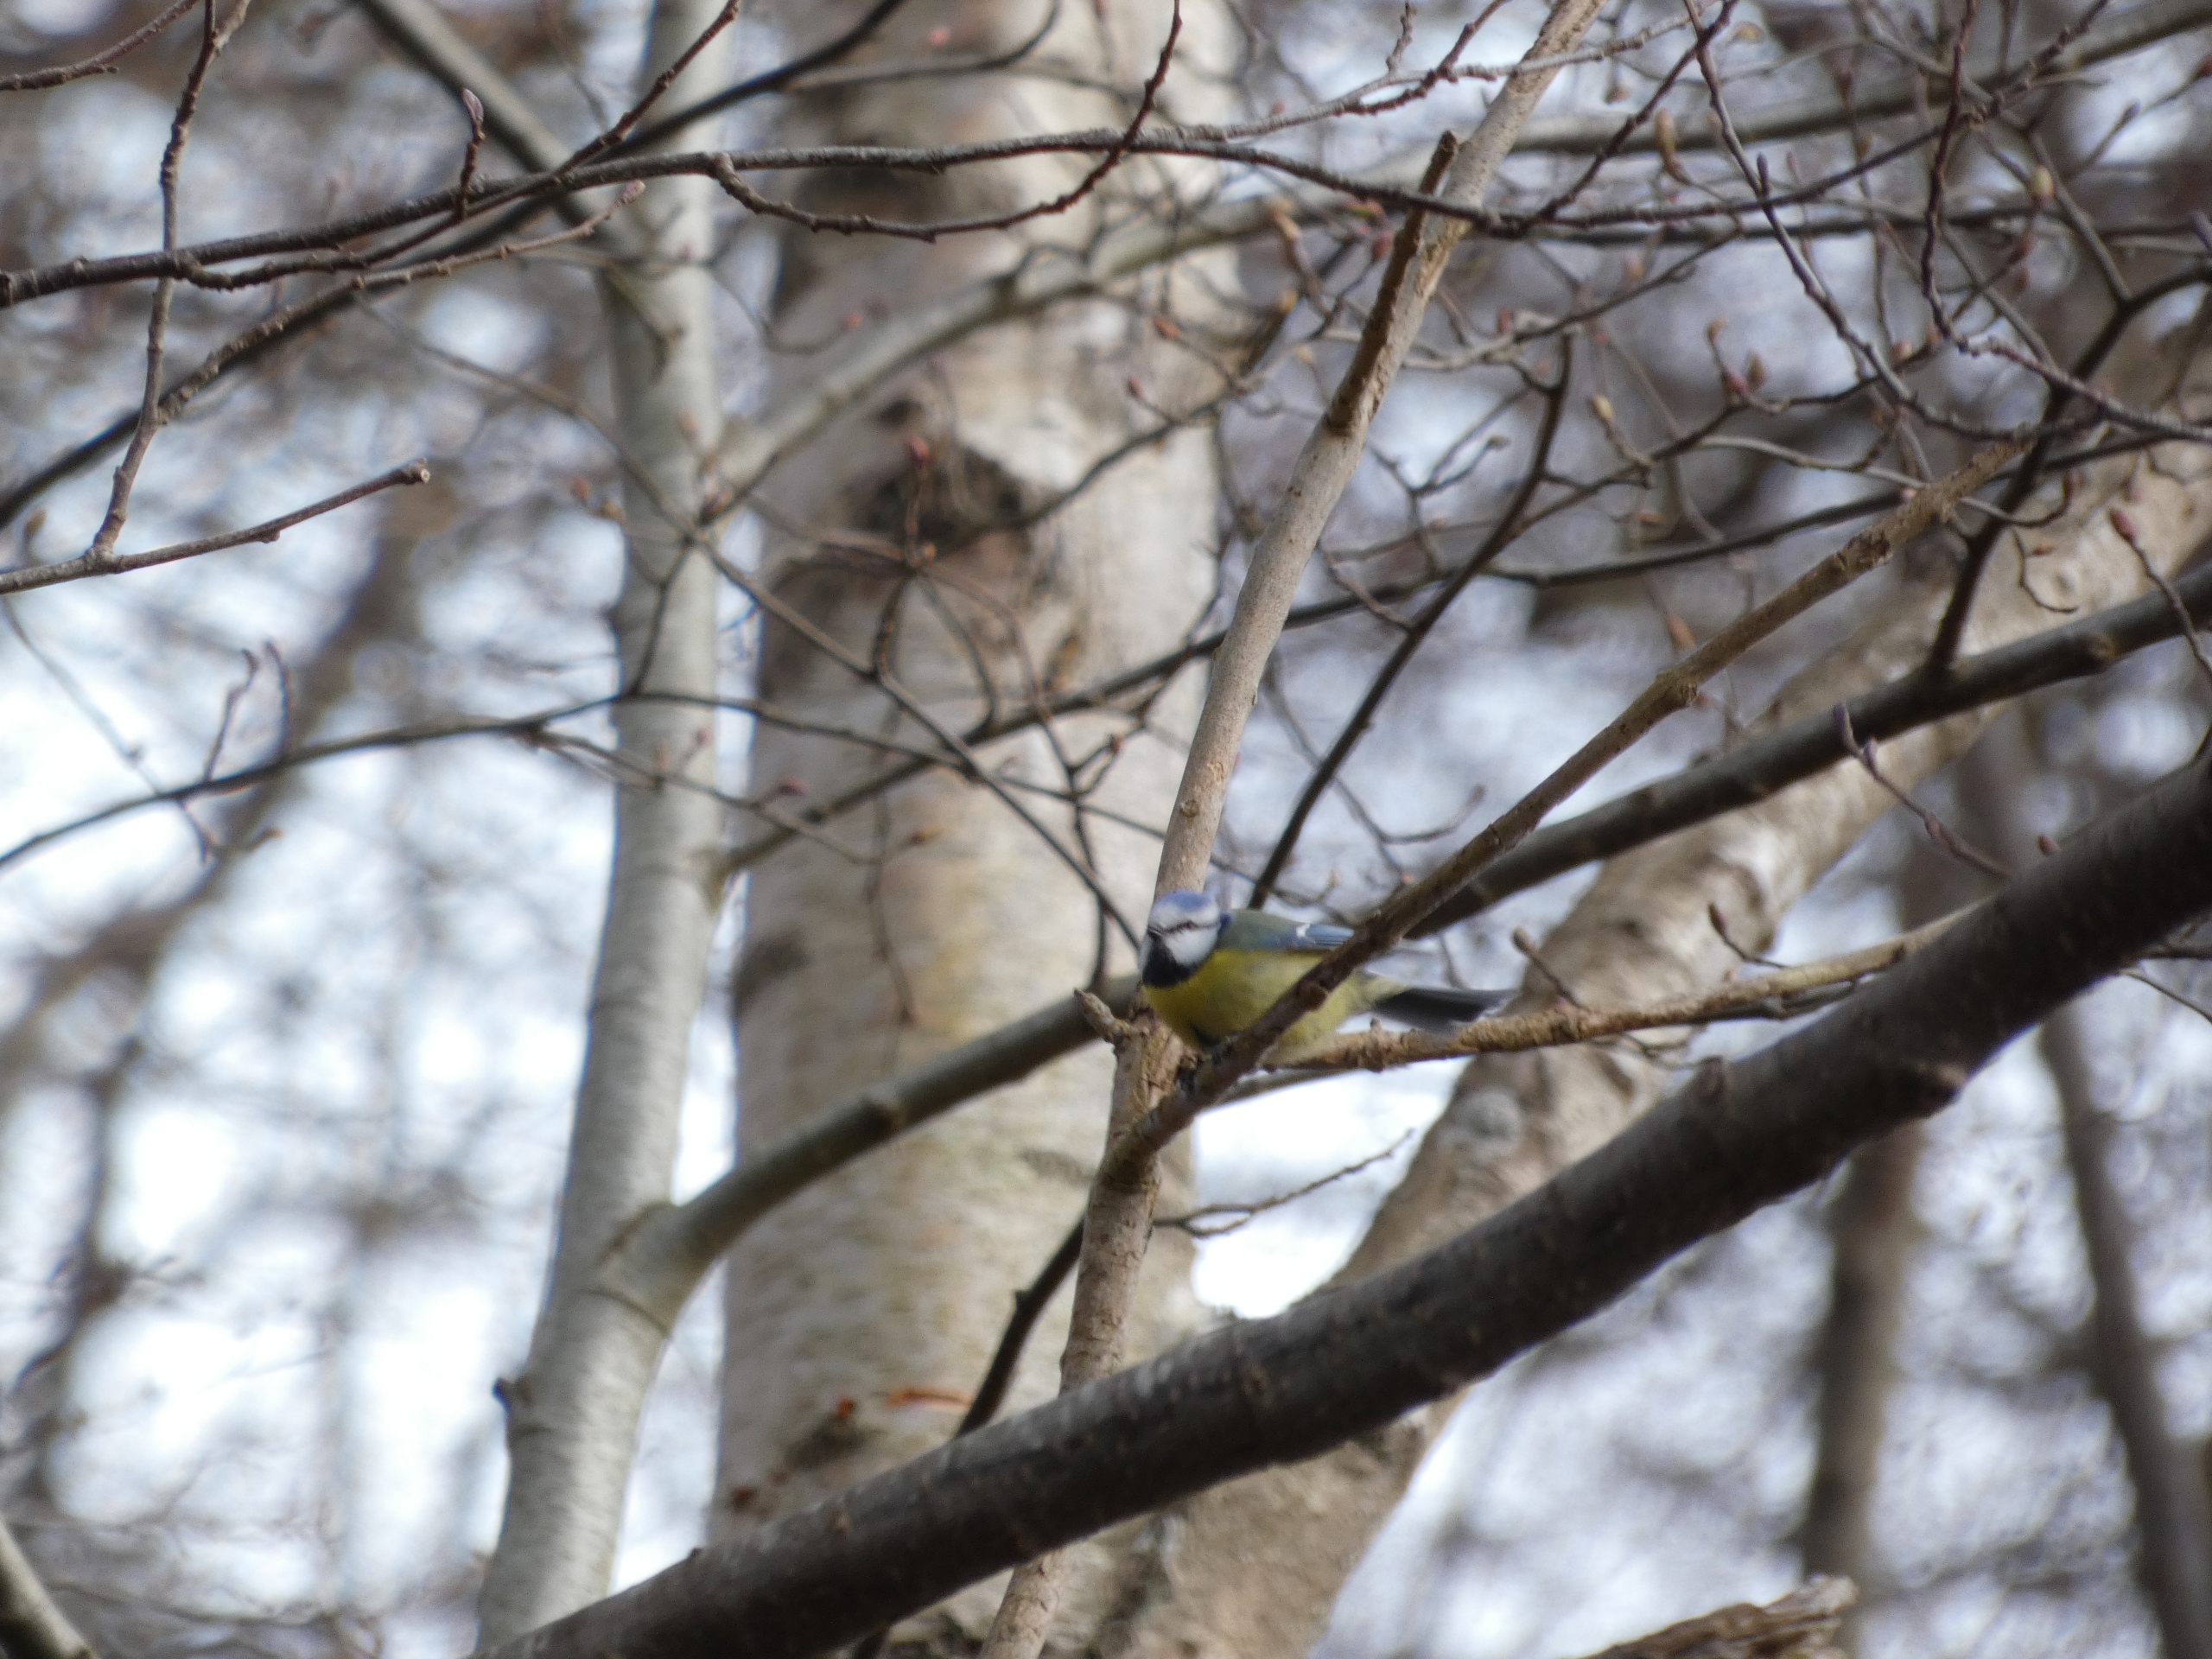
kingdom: Animalia
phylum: Chordata
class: Aves
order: Passeriformes
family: Paridae
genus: Cyanistes
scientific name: Cyanistes caeruleus
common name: Blåmejse
